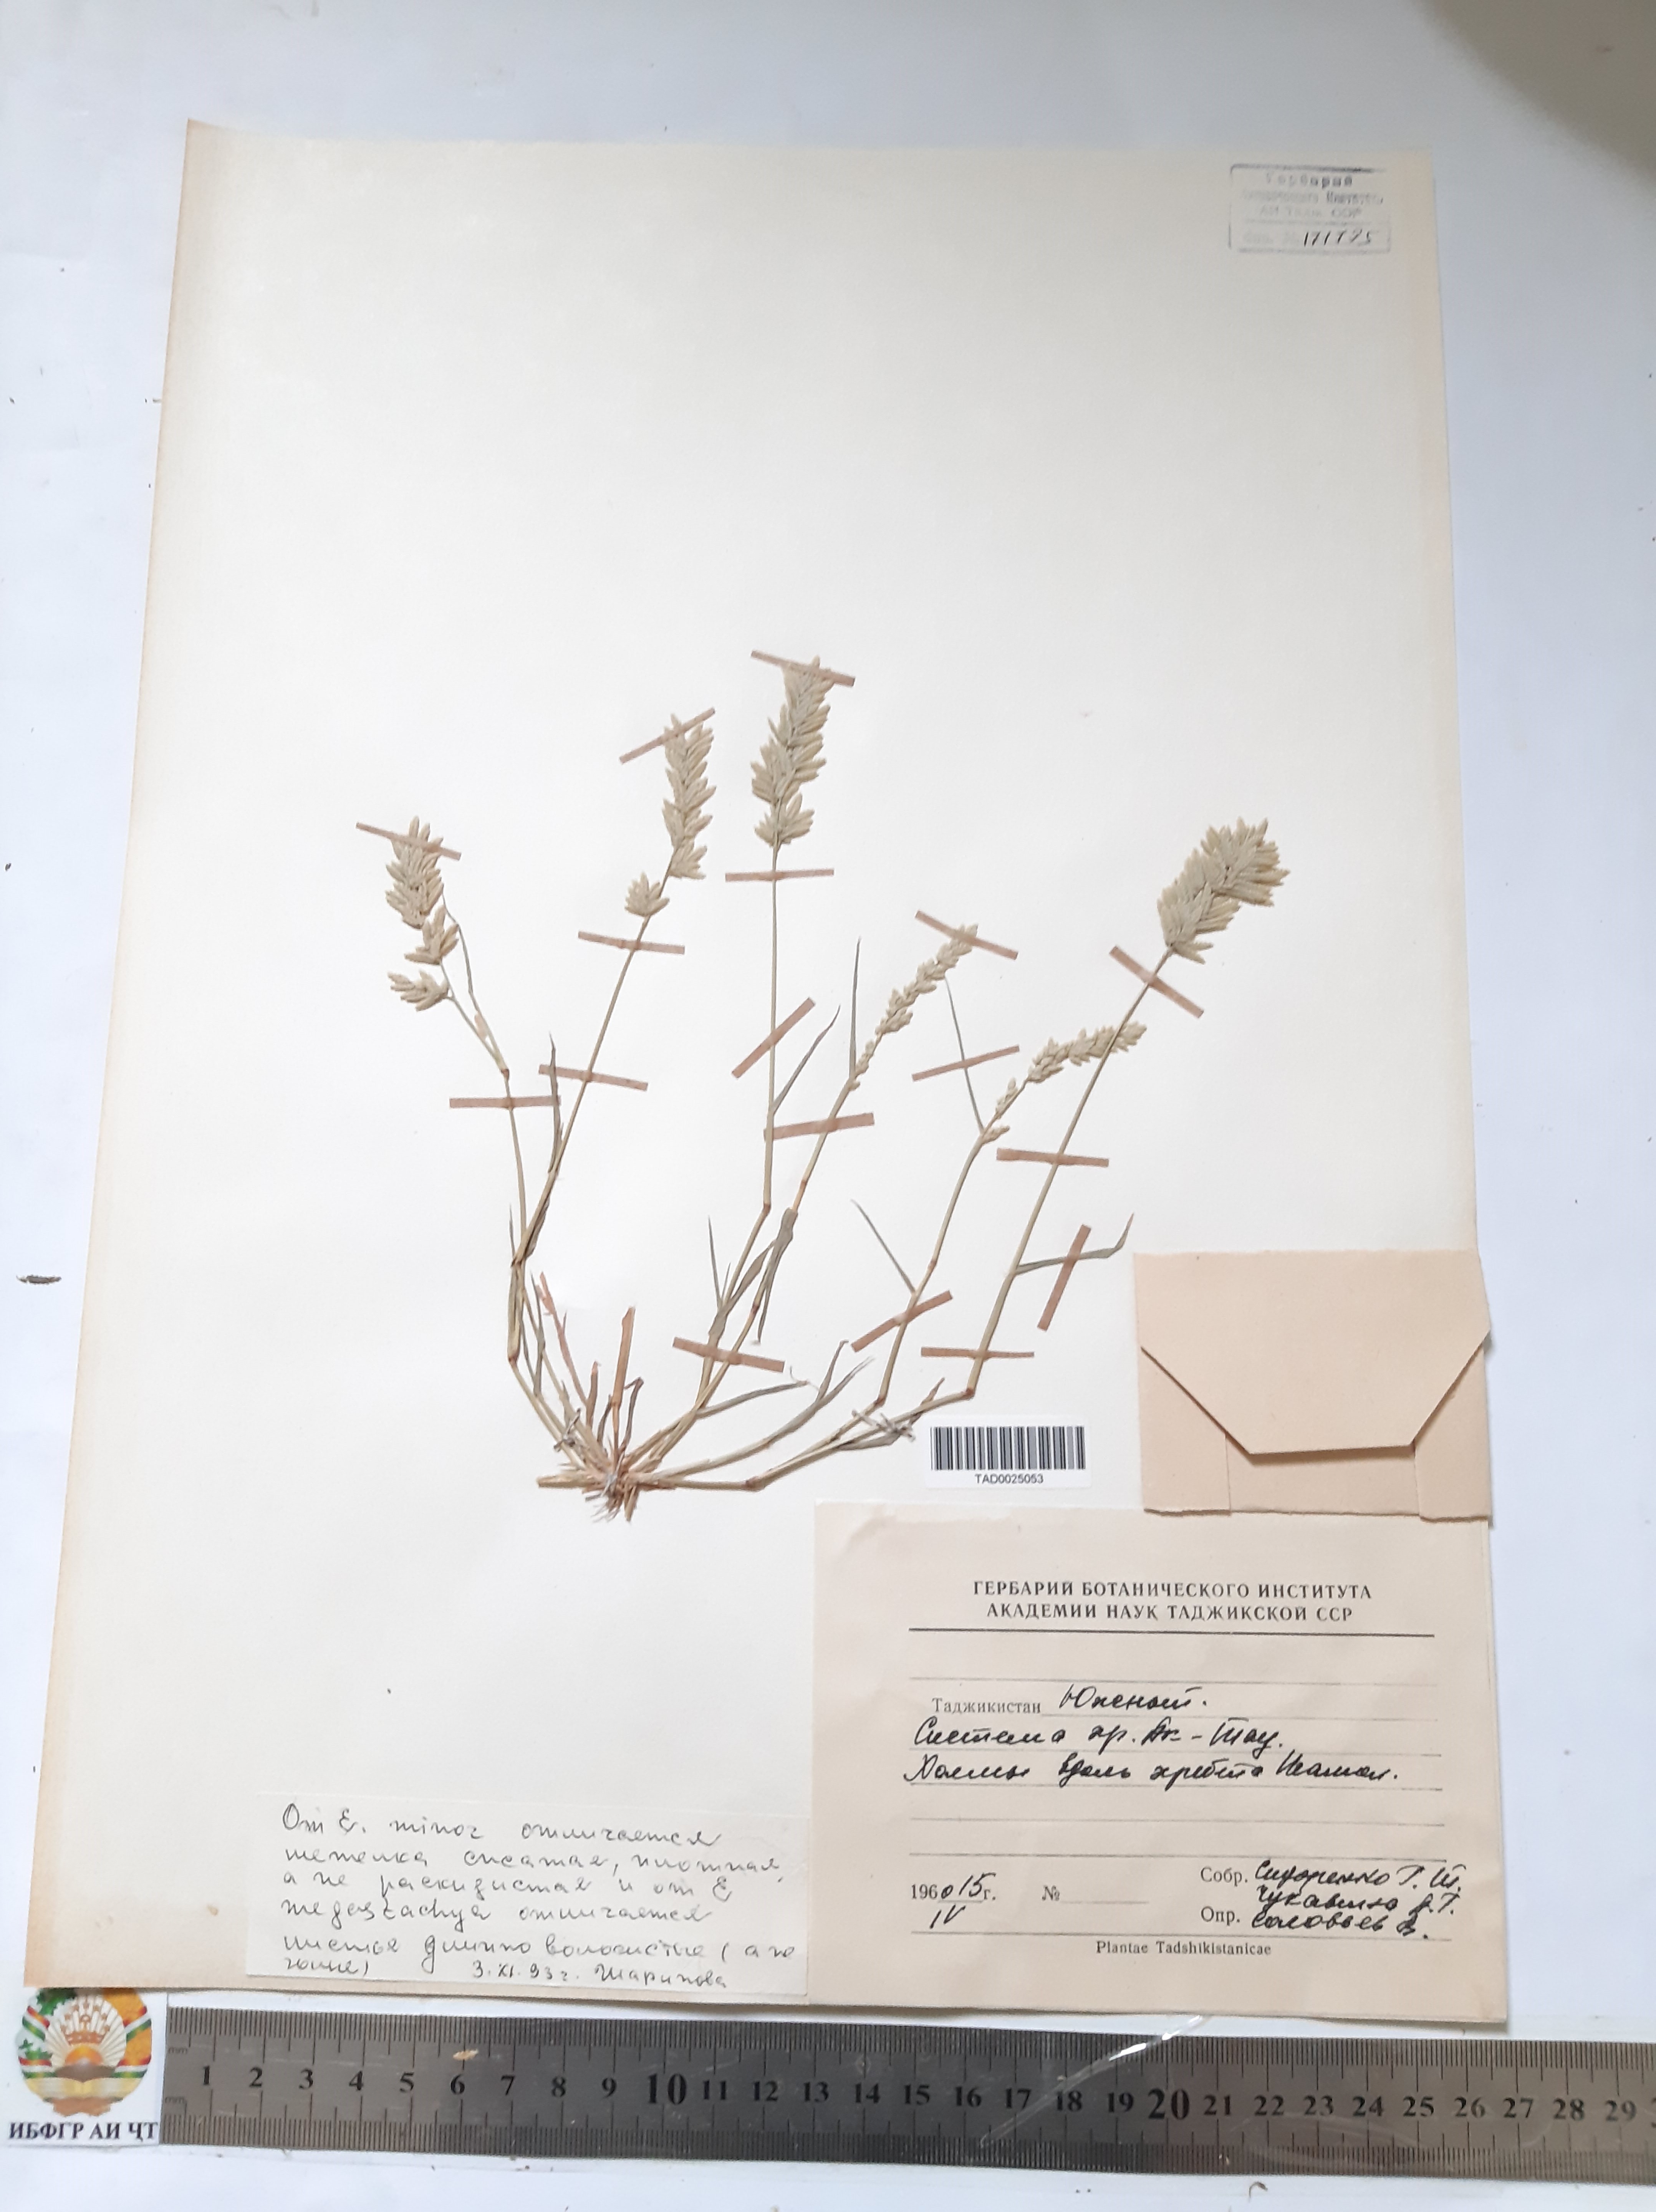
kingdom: Plantae
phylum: Tracheophyta
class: Liliopsida
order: Poales
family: Poaceae
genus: Eragrostis
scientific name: Eragrostis minor
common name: Small love-grass
